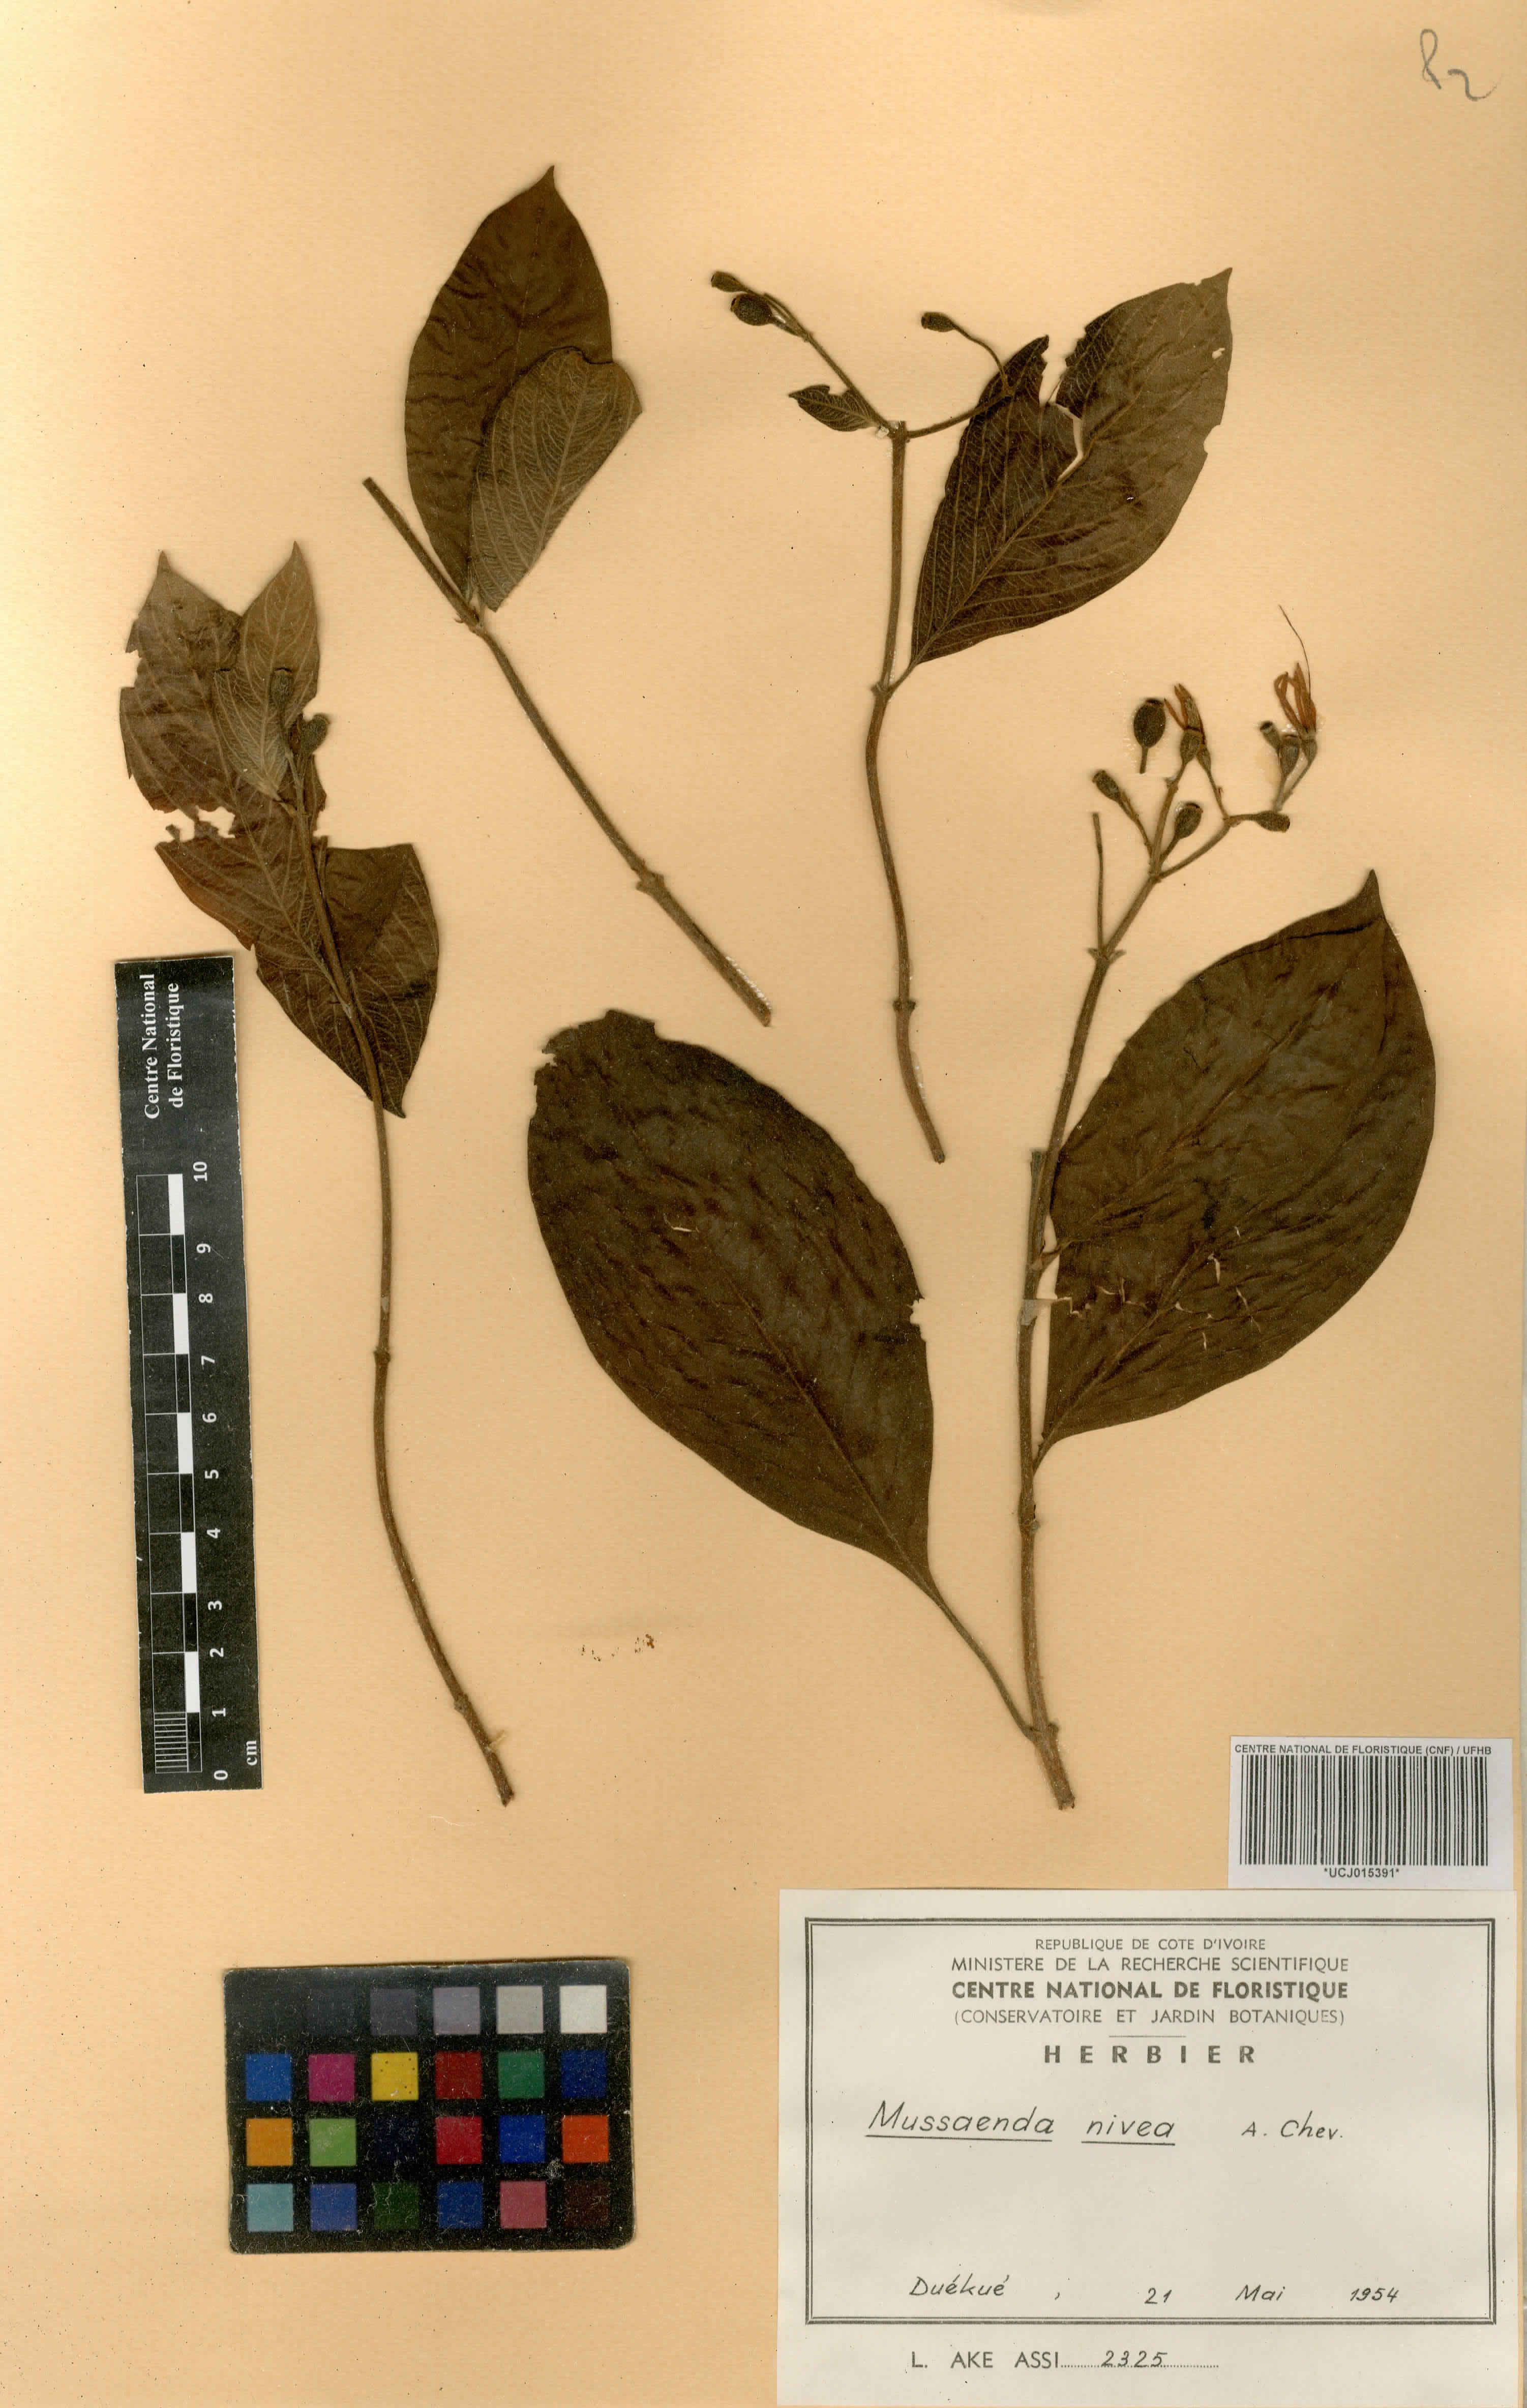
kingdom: Plantae
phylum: Tracheophyta
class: Magnoliopsida
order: Gentianales
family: Rubiaceae
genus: Mussaenda
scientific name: Mussaenda nivea
